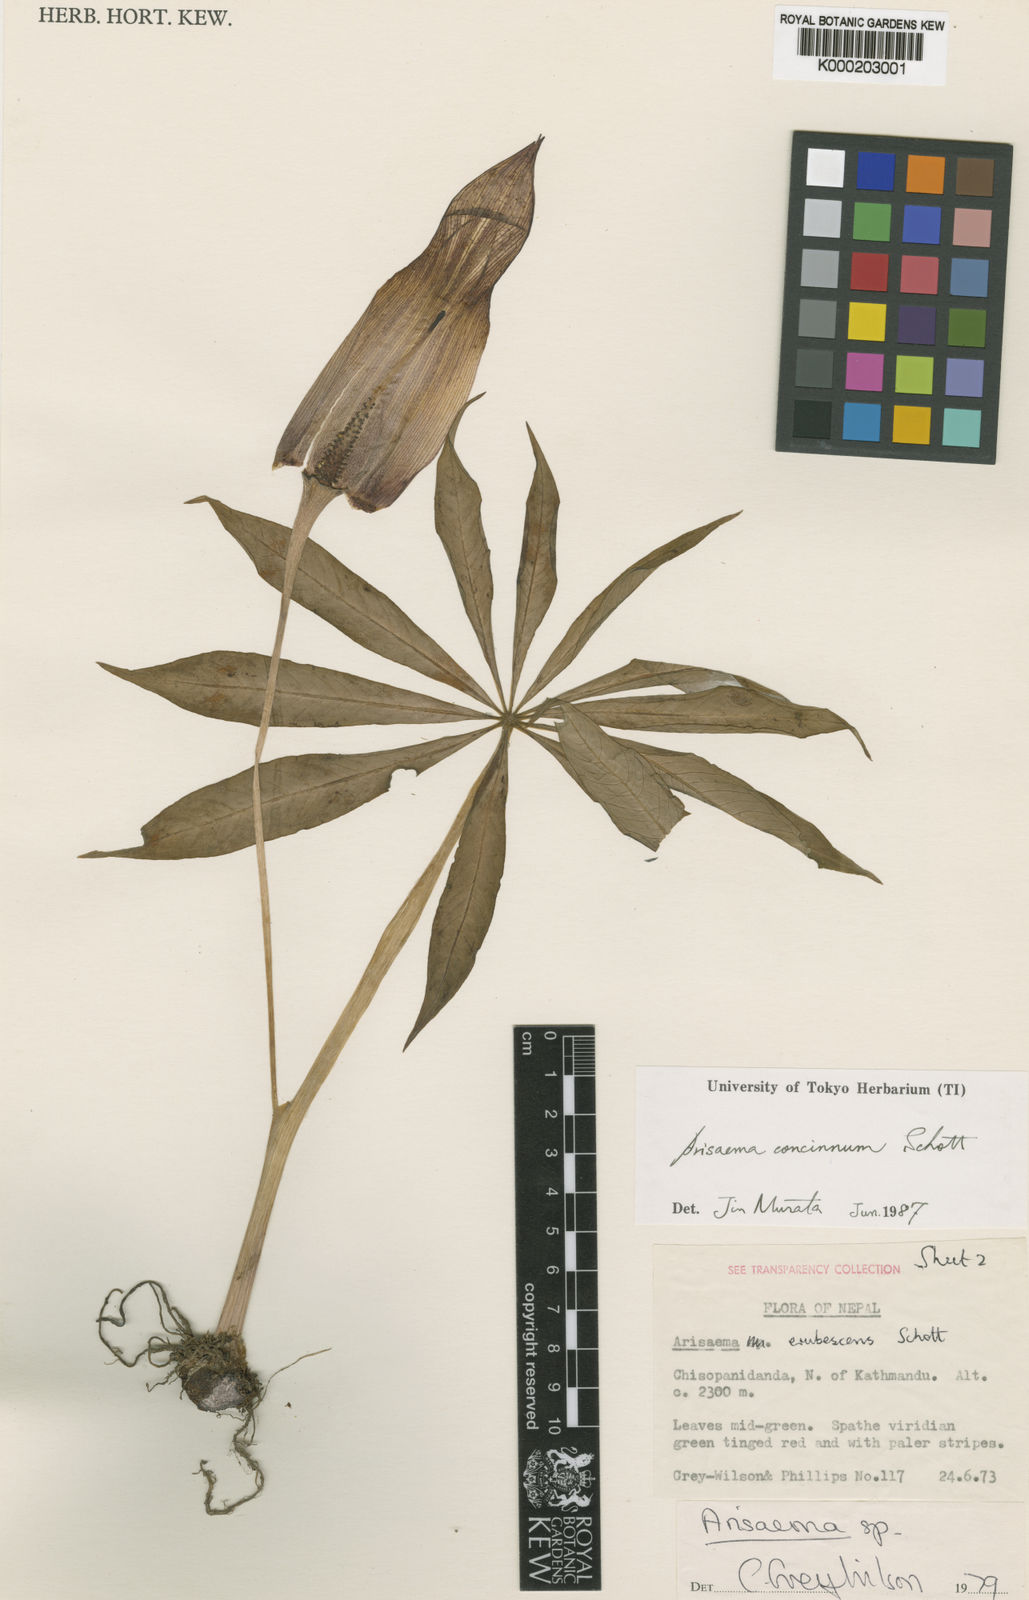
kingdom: Plantae
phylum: Tracheophyta
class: Liliopsida
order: Alismatales
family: Araceae
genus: Arisaema
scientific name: Arisaema concinnum
